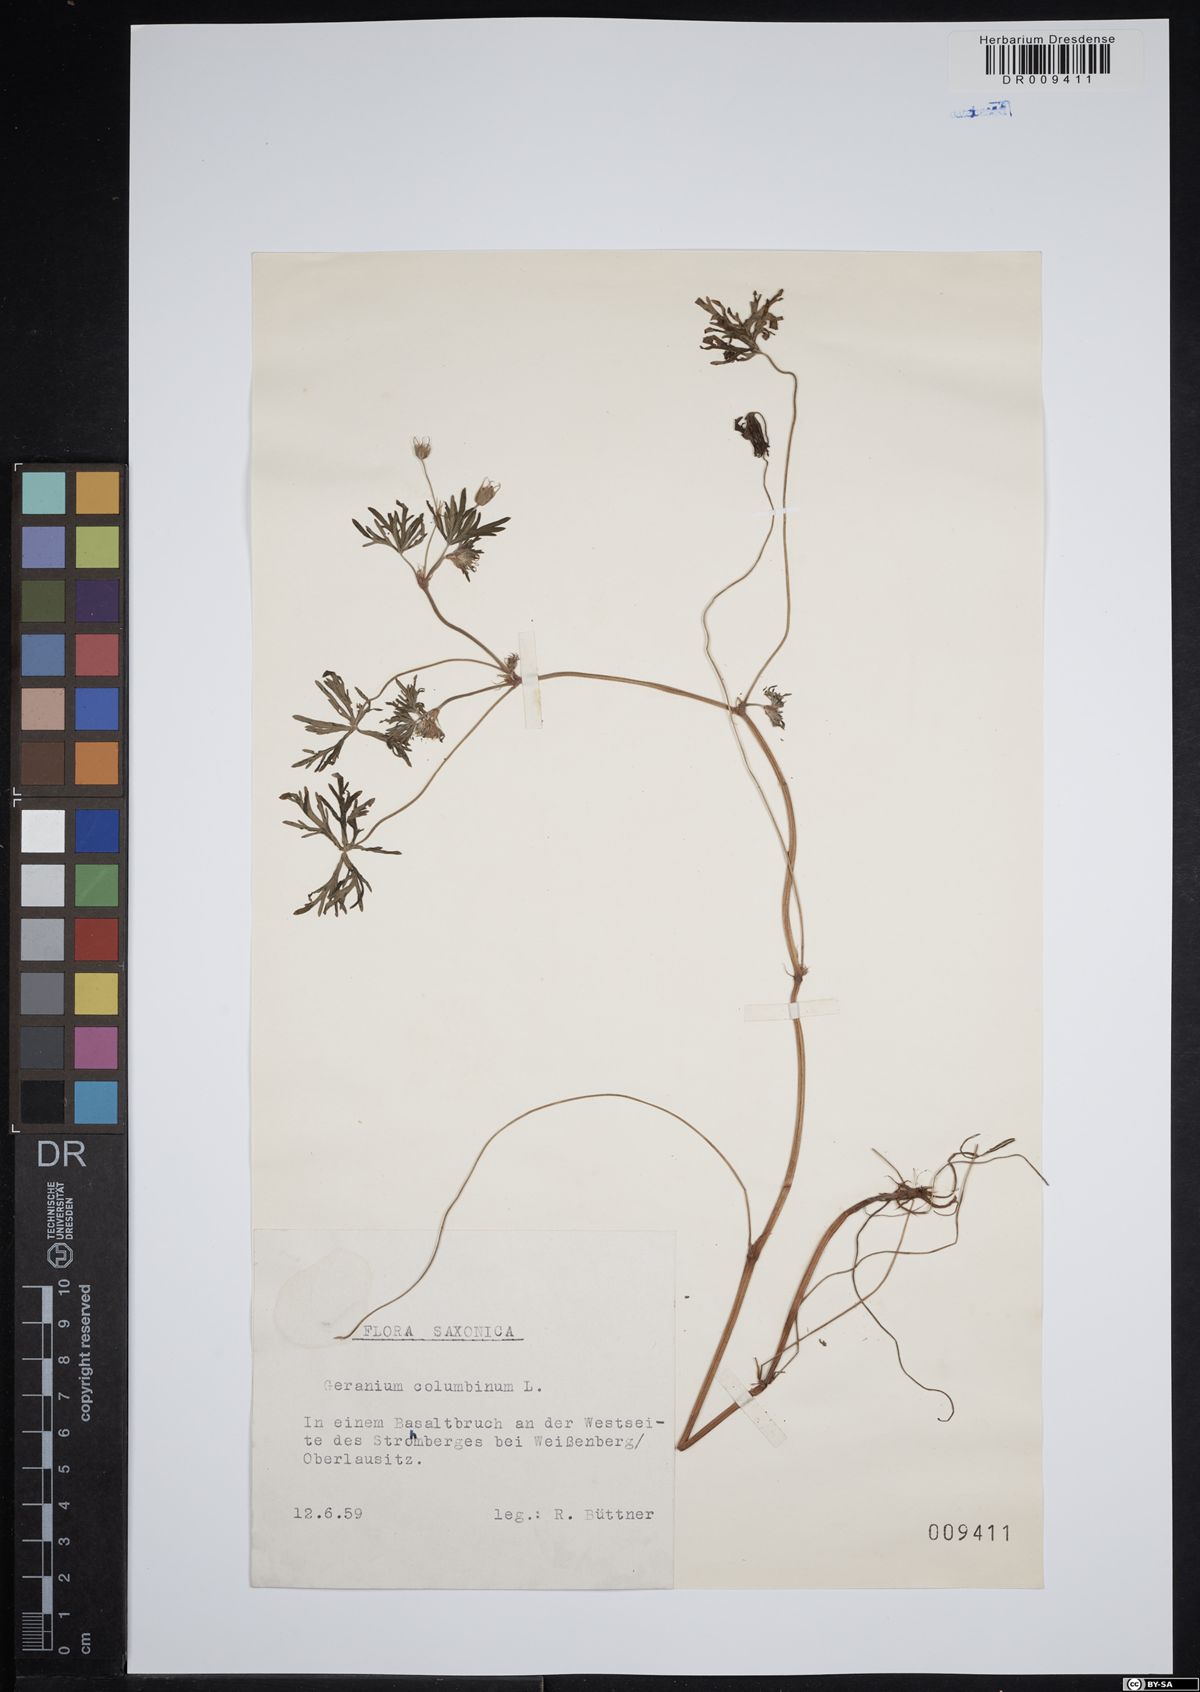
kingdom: Plantae
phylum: Tracheophyta
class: Magnoliopsida
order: Geraniales
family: Geraniaceae
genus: Geranium
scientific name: Geranium columbinum
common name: Long-stalked crane's-bill
